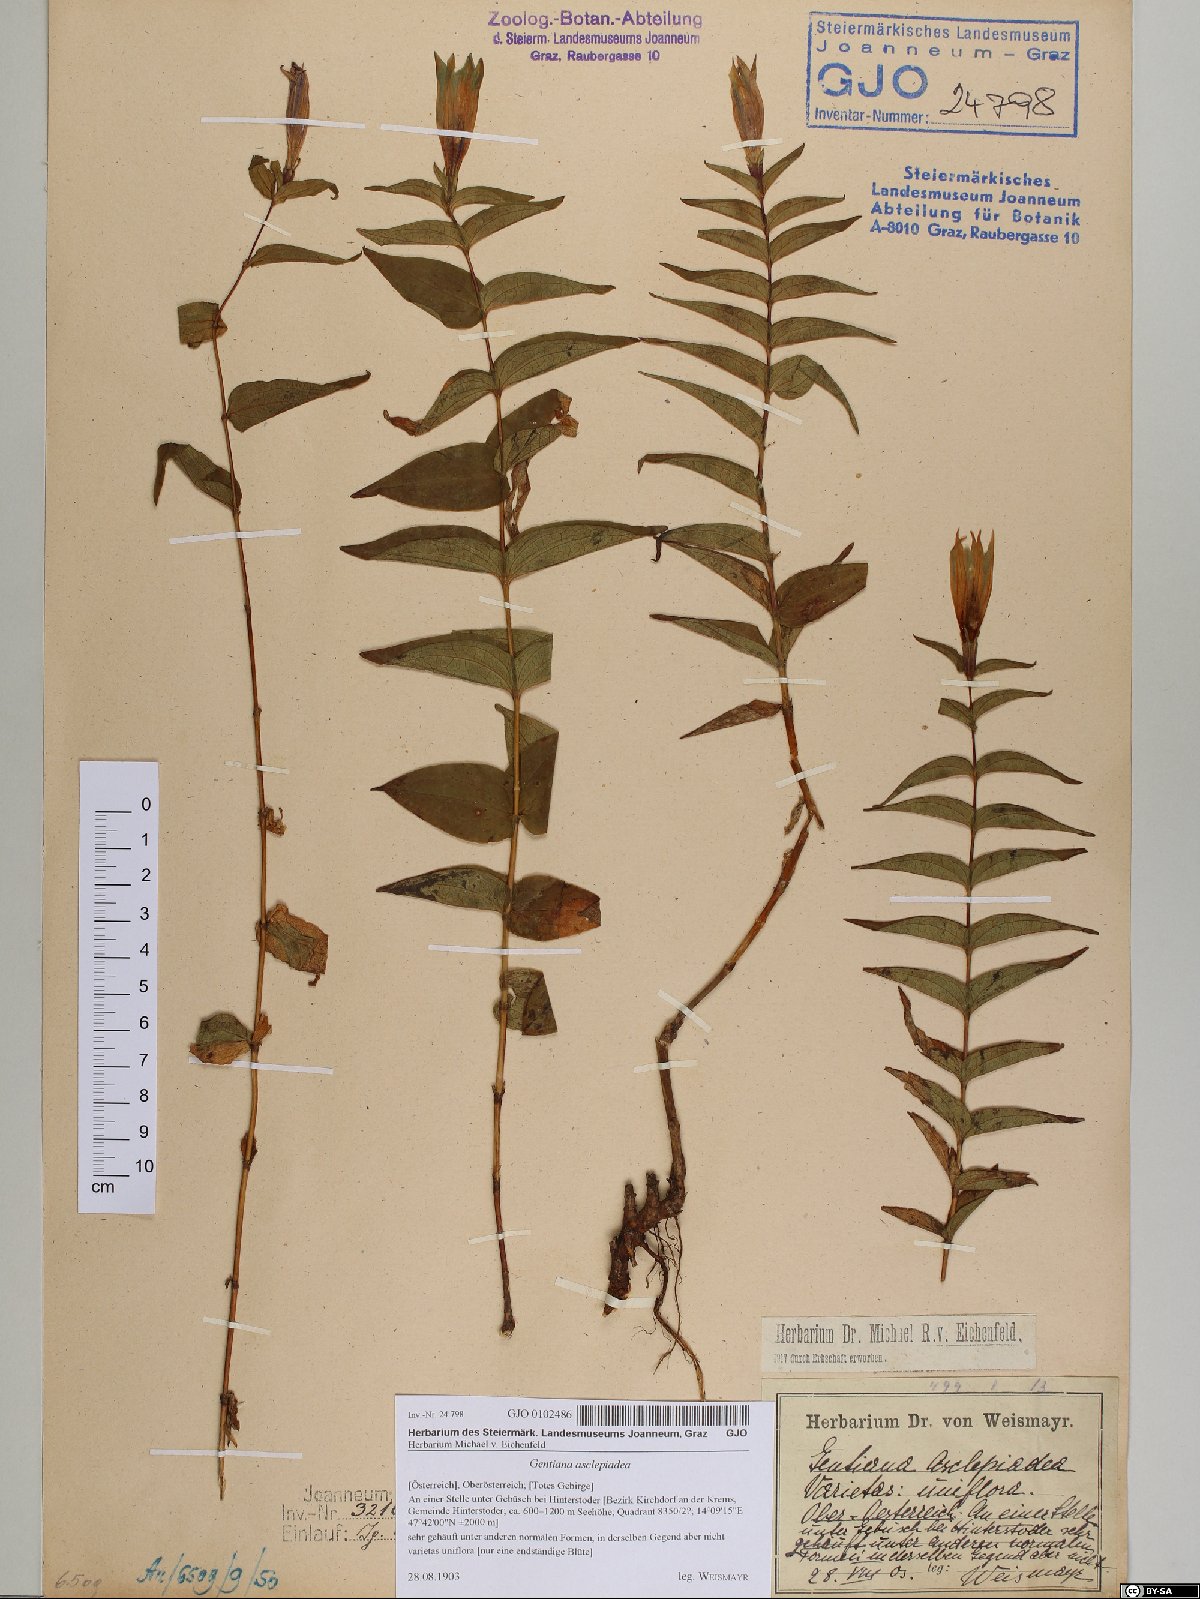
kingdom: Plantae
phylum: Tracheophyta
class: Magnoliopsida
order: Gentianales
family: Gentianaceae
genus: Gentiana
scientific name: Gentiana asclepiadea
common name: Willow gentian
